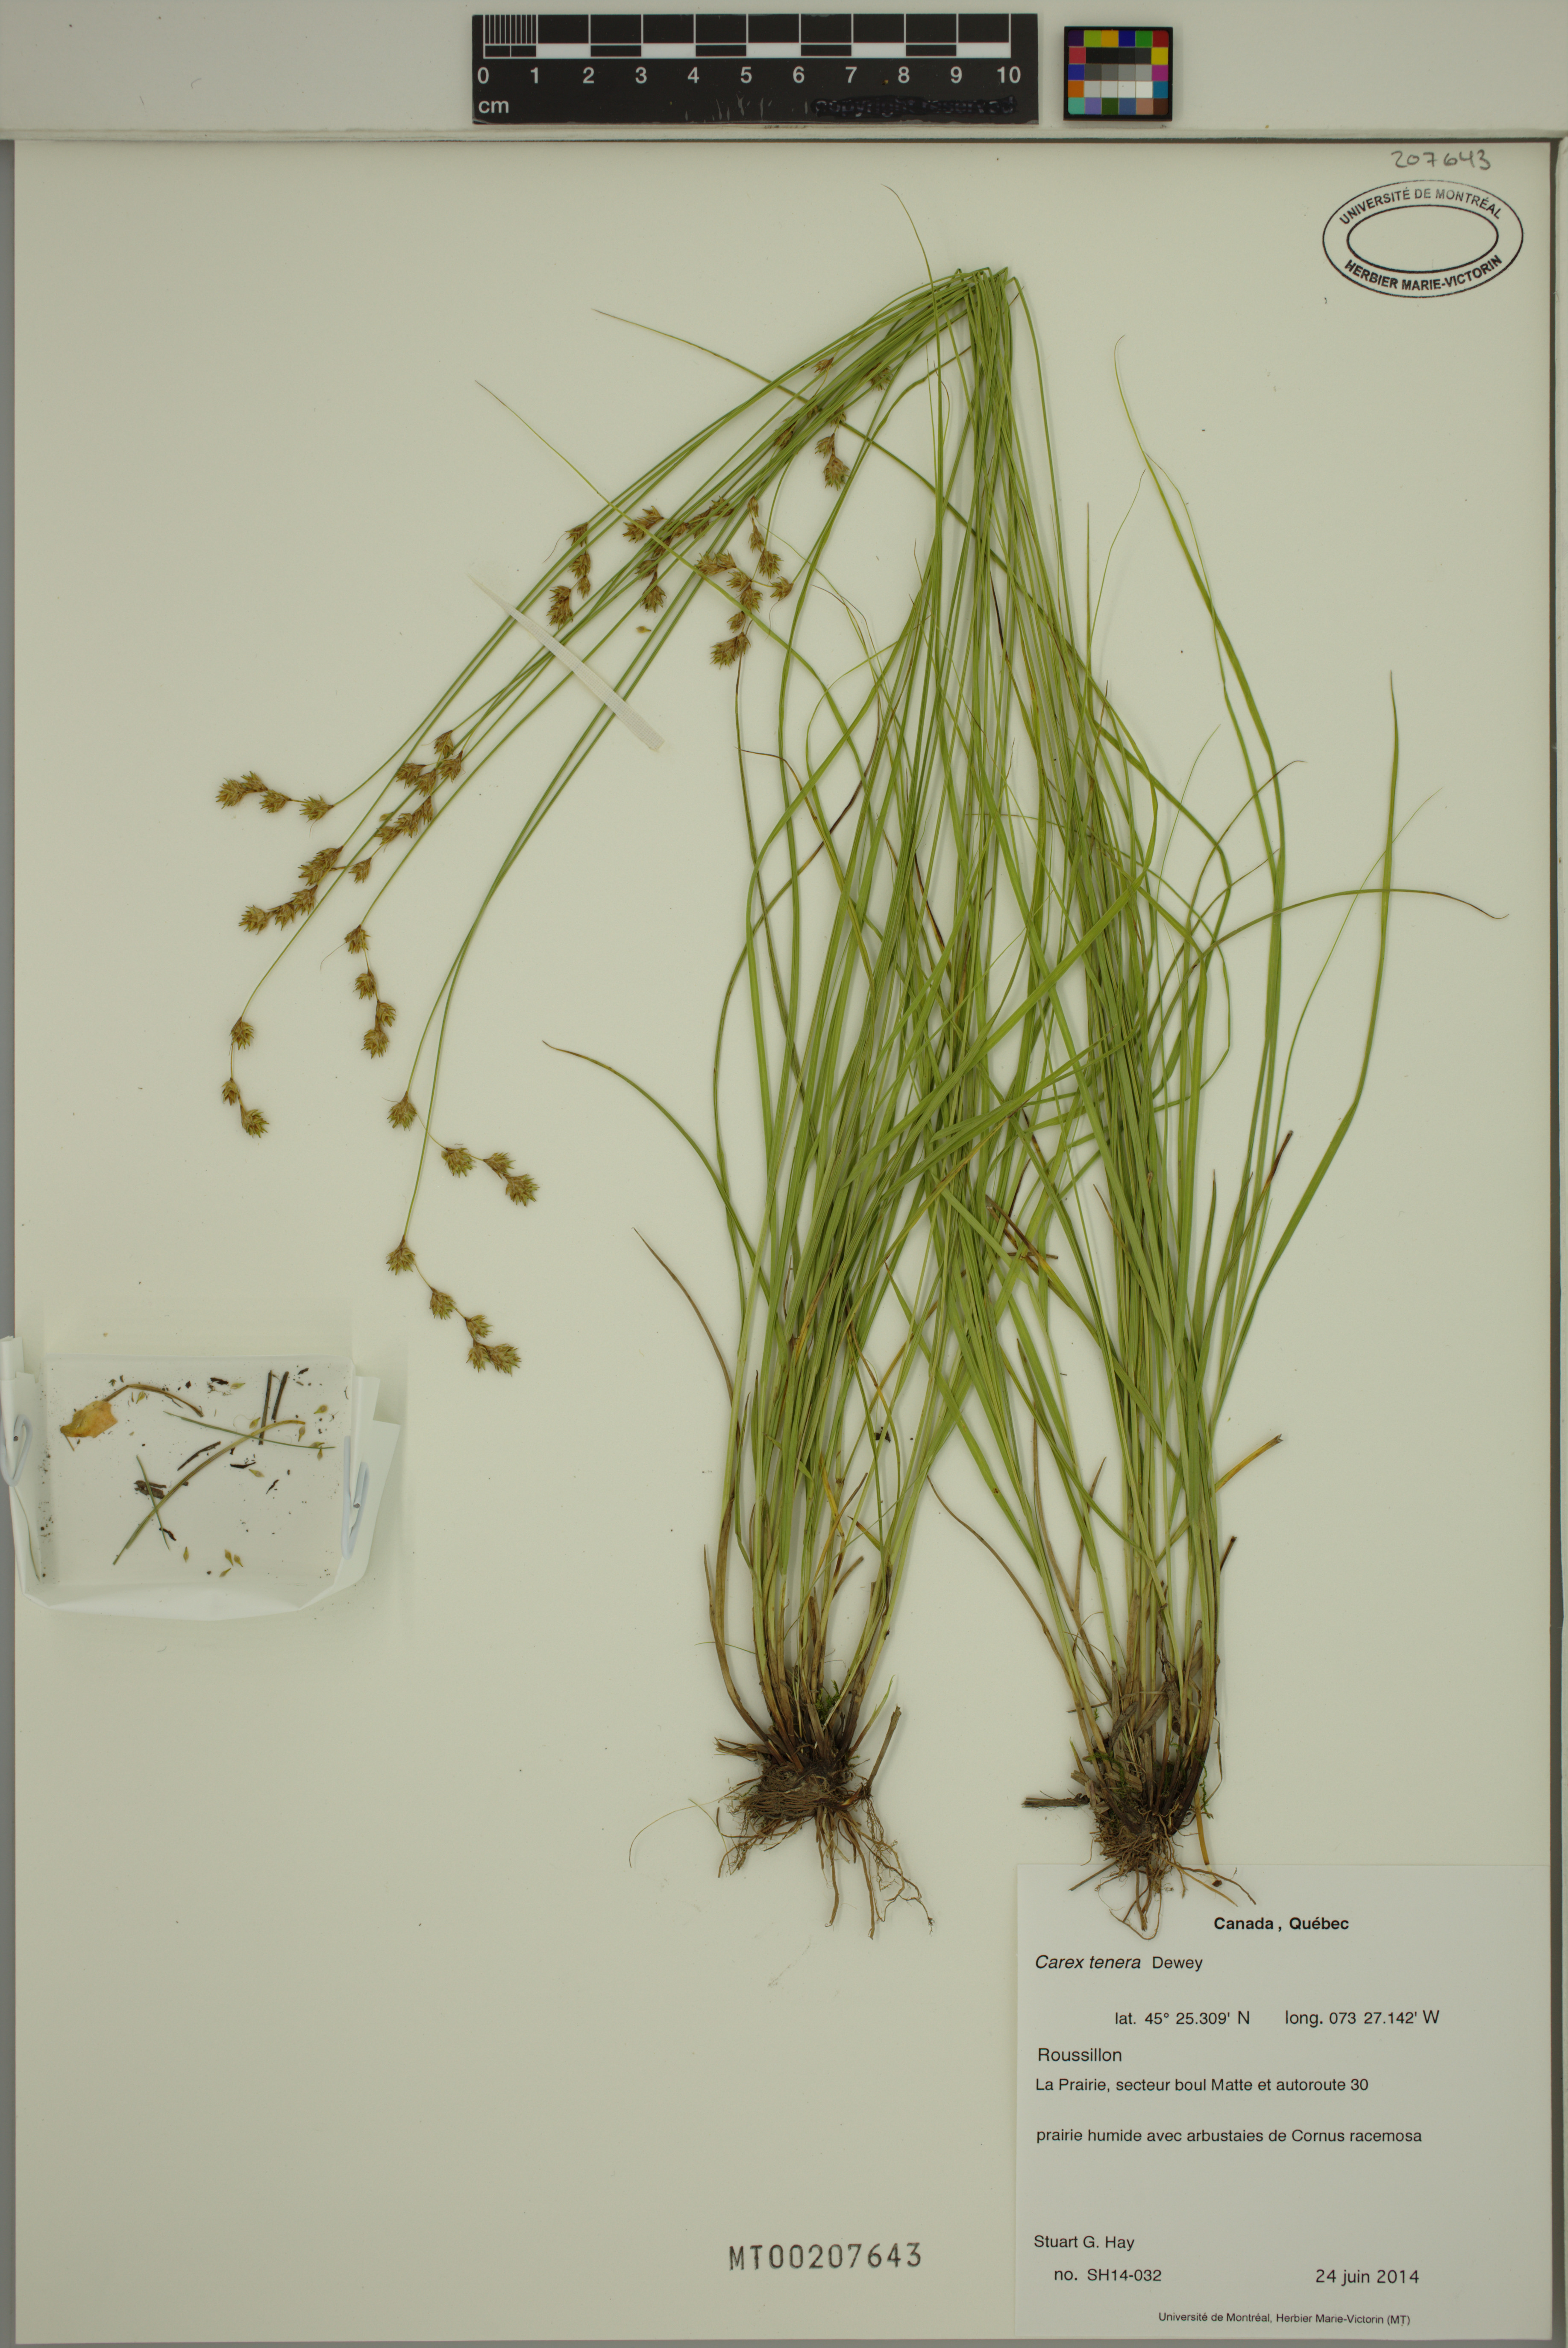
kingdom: Plantae
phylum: Tracheophyta
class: Liliopsida
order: Poales
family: Cyperaceae
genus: Carex
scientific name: Carex tenera
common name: Broad-fruited sedge
